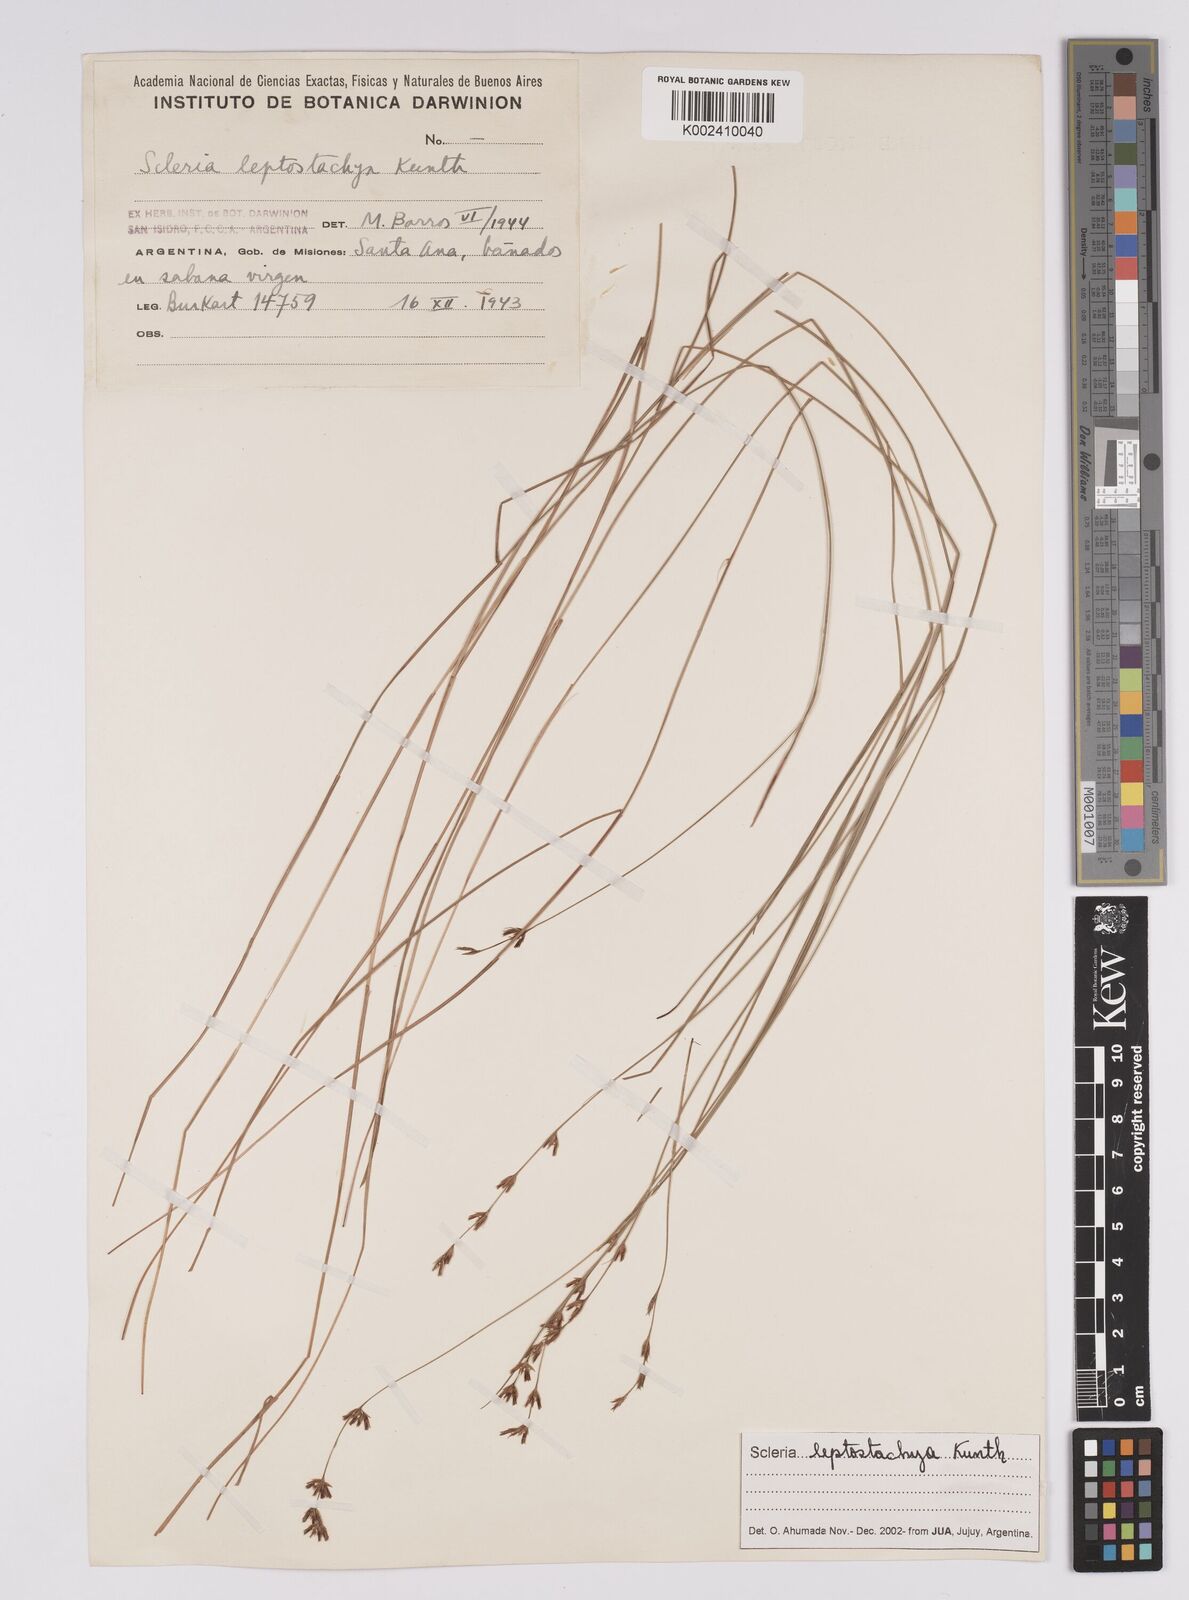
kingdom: Plantae
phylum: Tracheophyta
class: Liliopsida
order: Poales
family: Cyperaceae
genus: Cryptangium
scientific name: Cryptangium verticillatum
